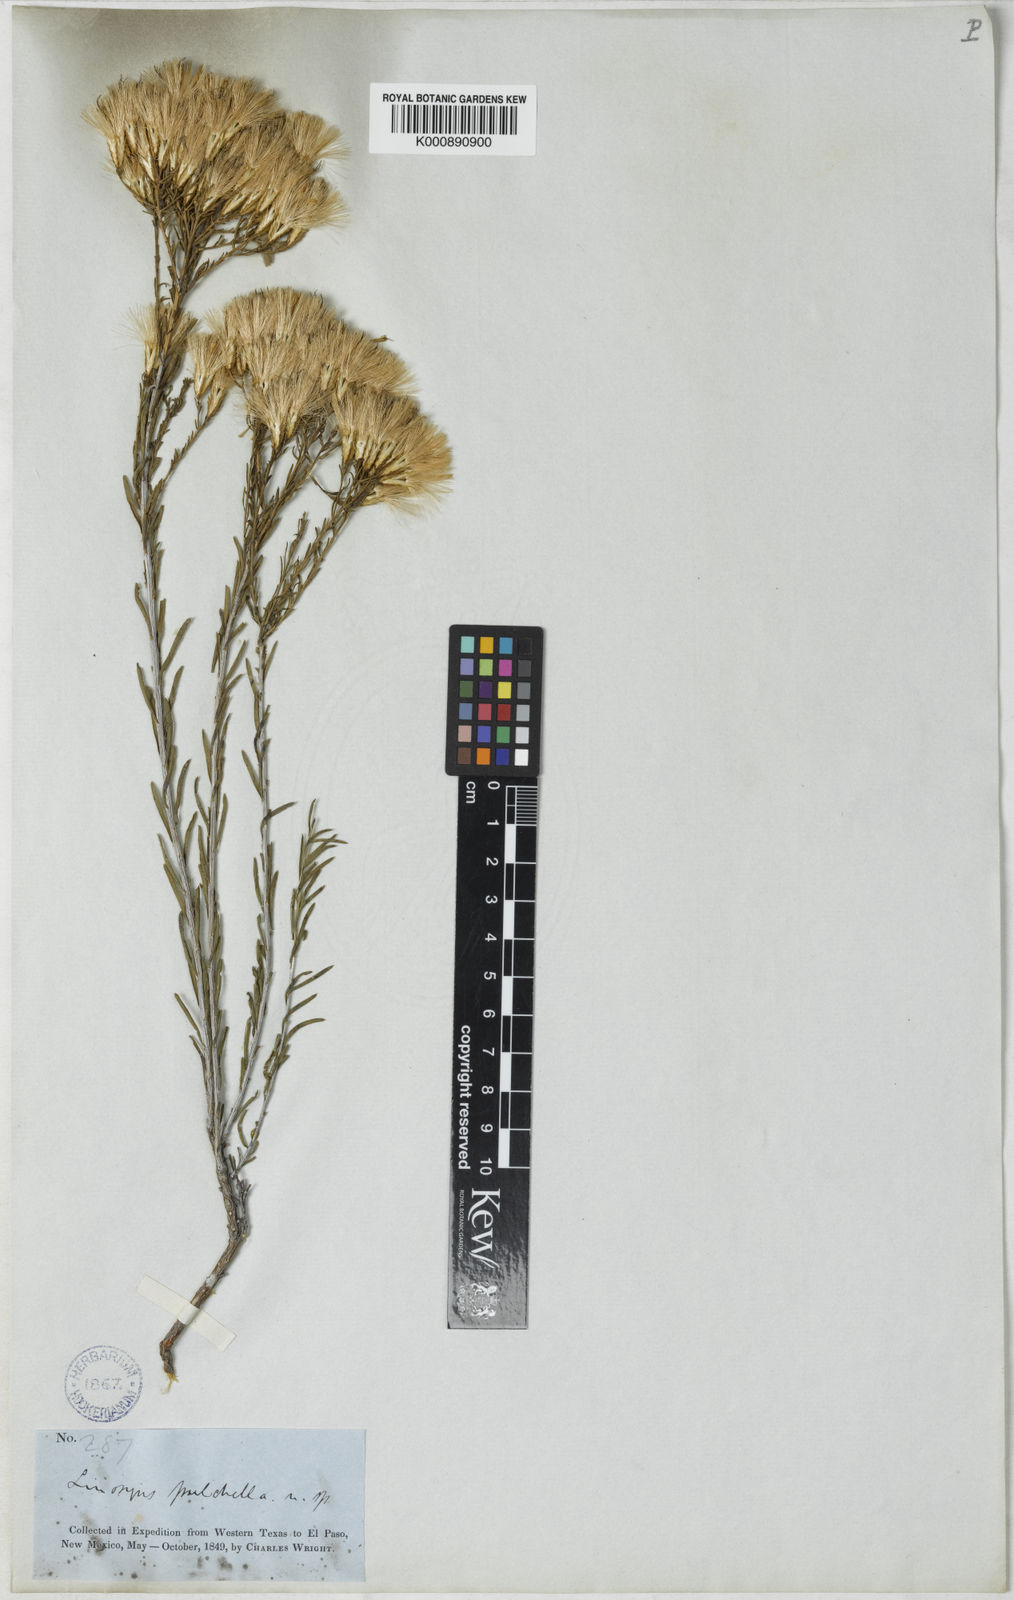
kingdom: Plantae
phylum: Tracheophyta
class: Magnoliopsida
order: Asterales
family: Asteraceae
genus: Lorandersonia
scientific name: Lorandersonia pulchella
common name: Southwestern rabbitbrush
